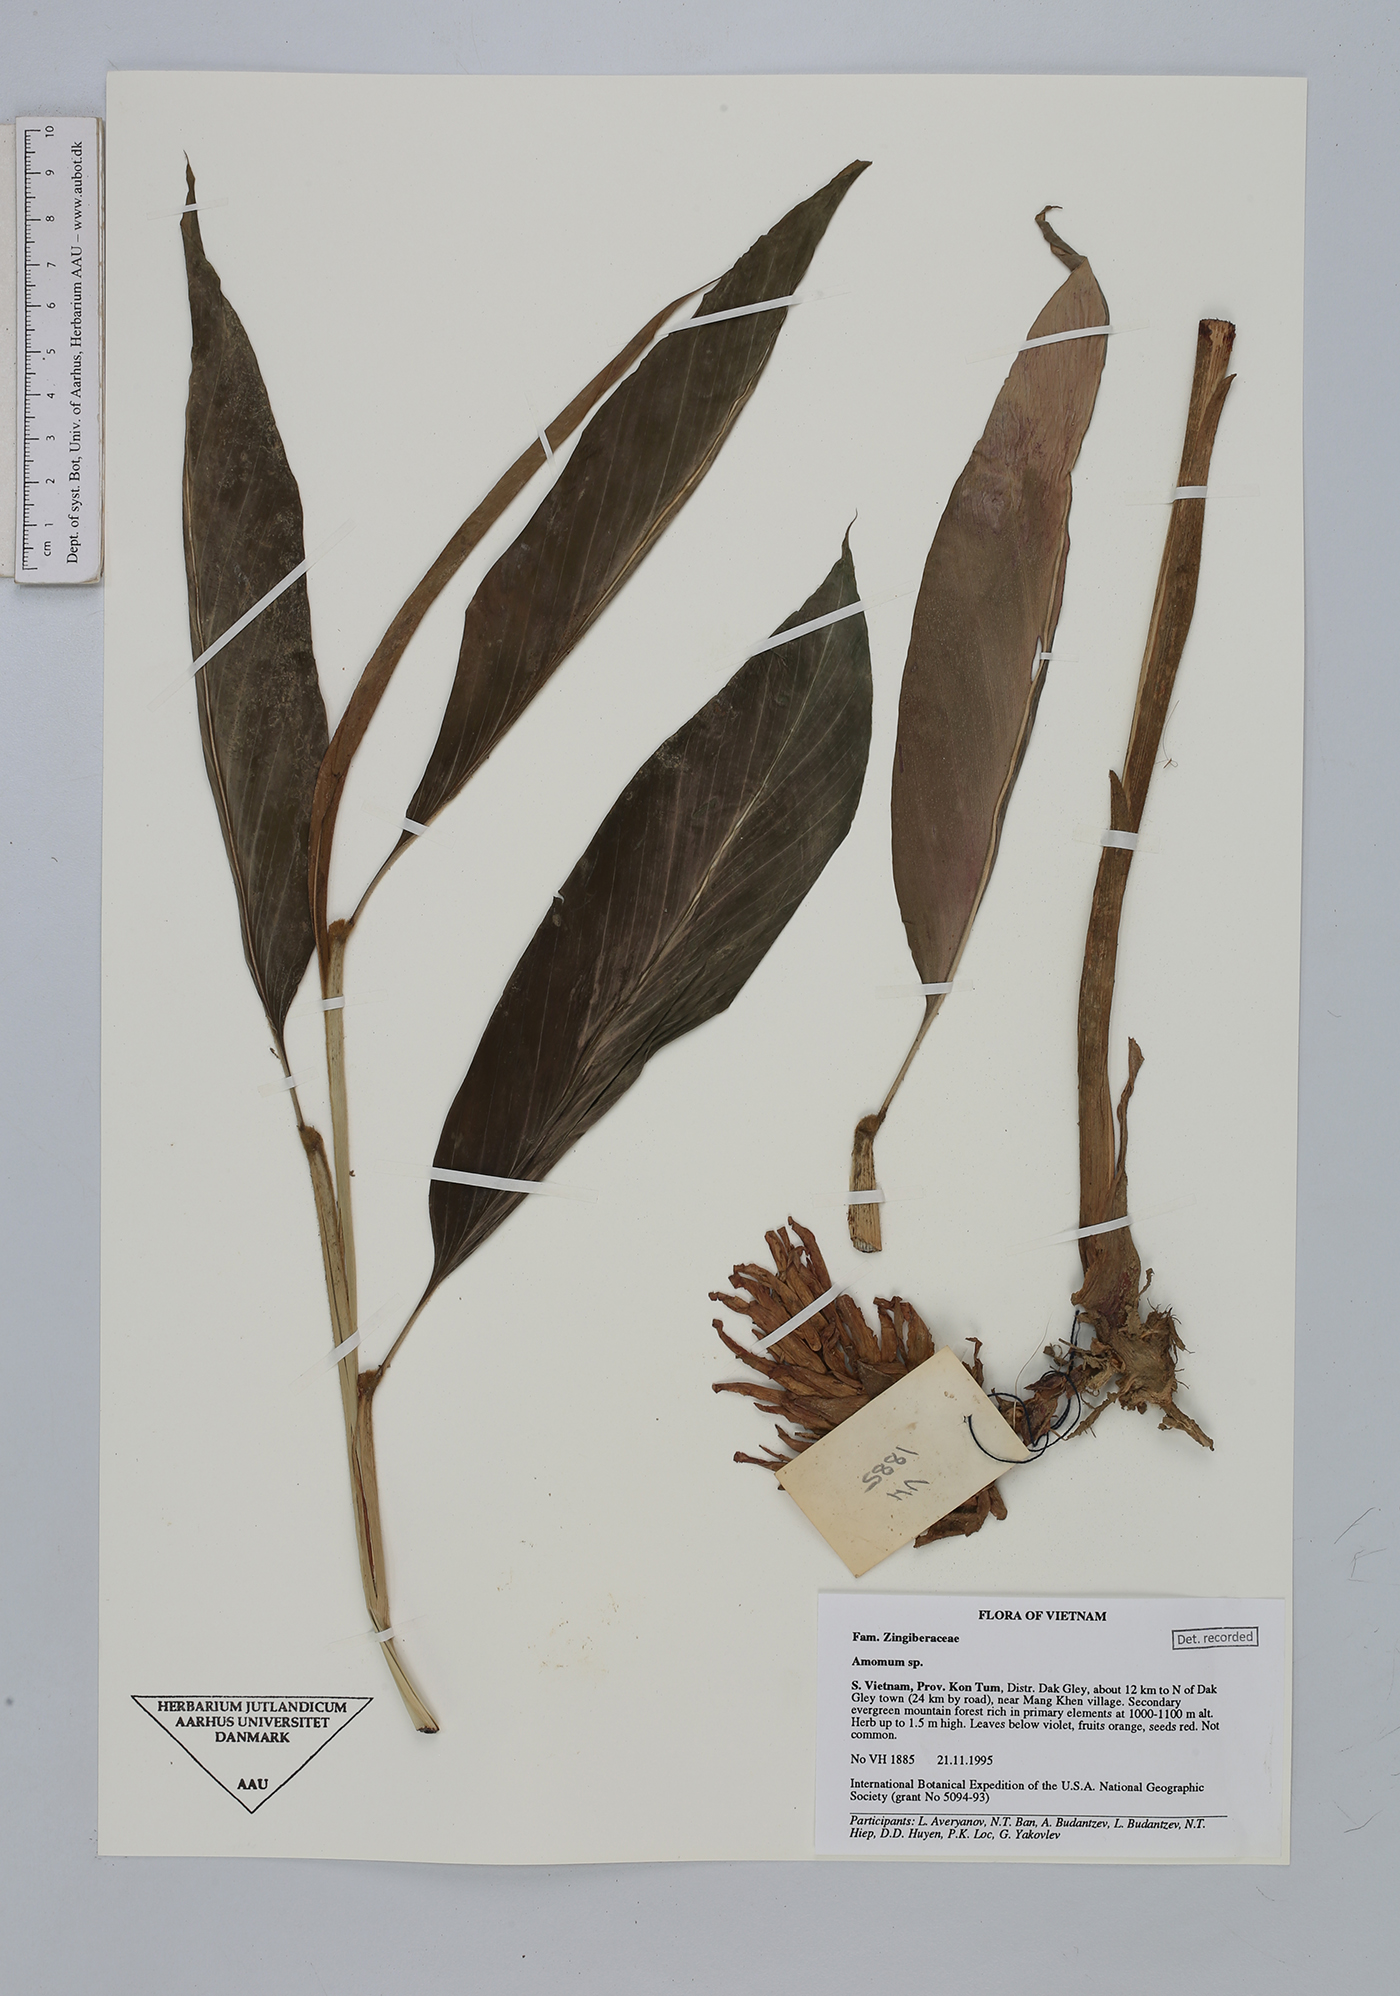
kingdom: Plantae
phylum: Tracheophyta
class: Liliopsida
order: Zingiberales
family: Zingiberaceae
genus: Amomum
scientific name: Amomum
